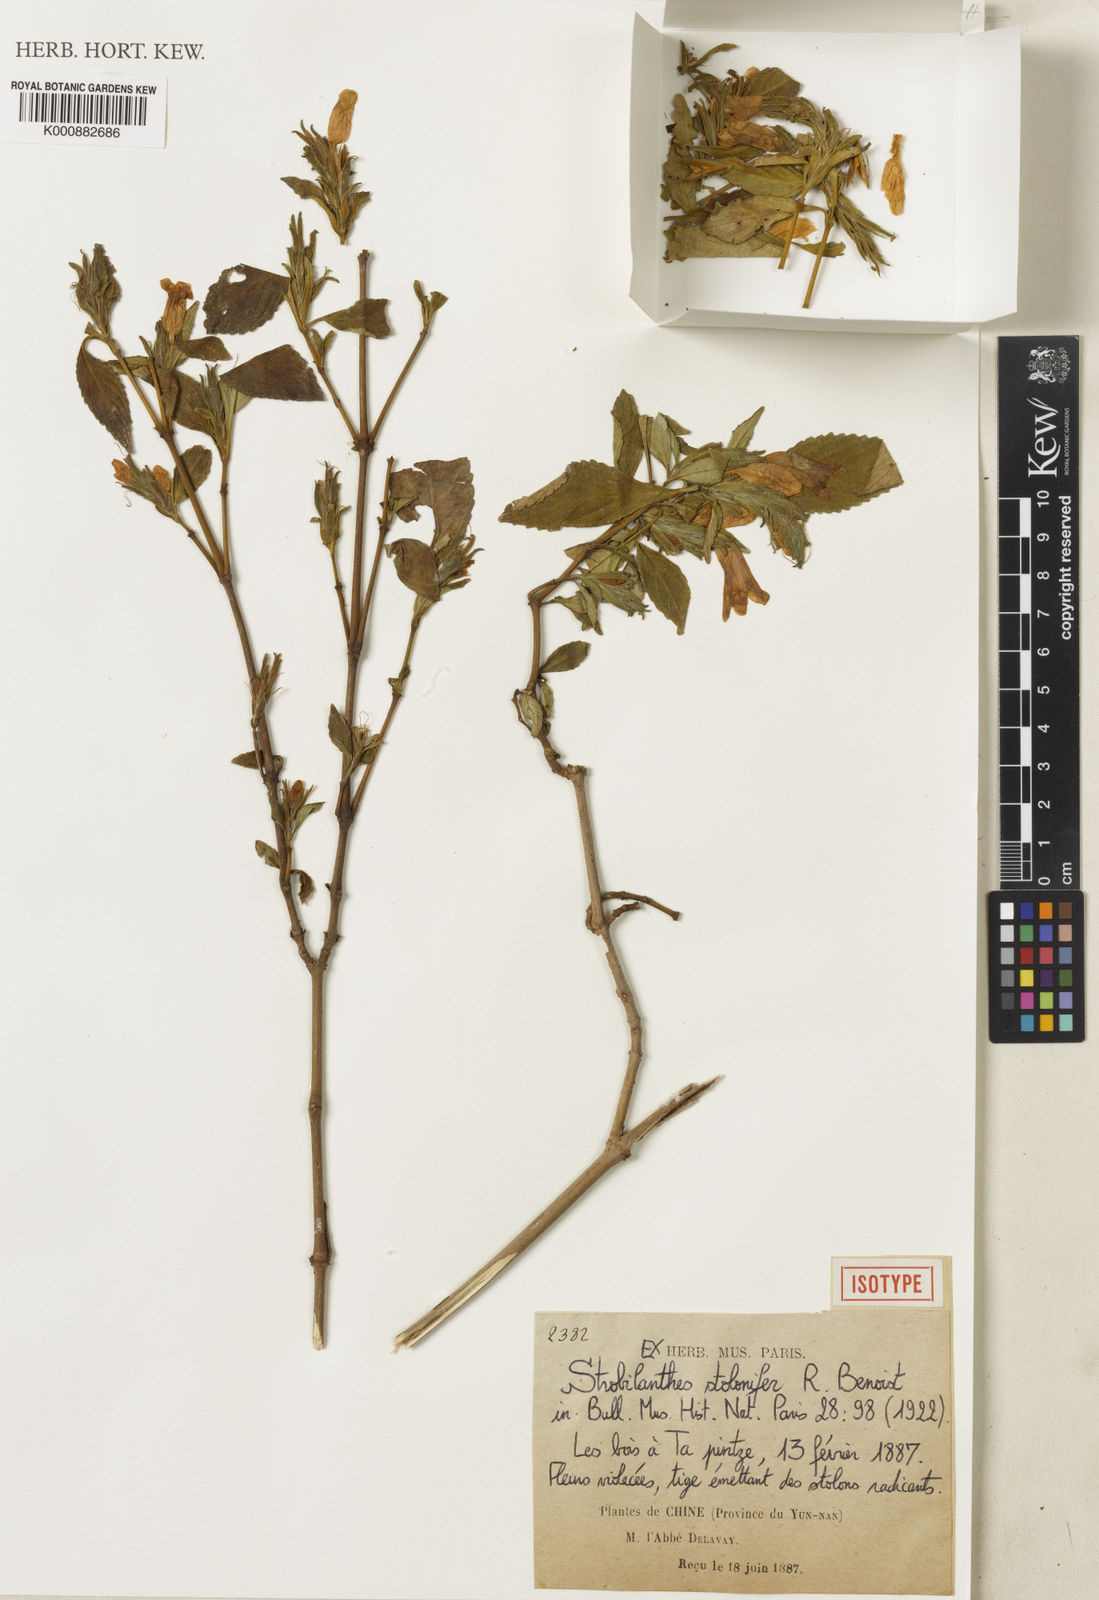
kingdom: Plantae
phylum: Tracheophyta
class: Magnoliopsida
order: Lamiales
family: Acanthaceae
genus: Strobilanthes
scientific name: Strobilanthes stolonifera
